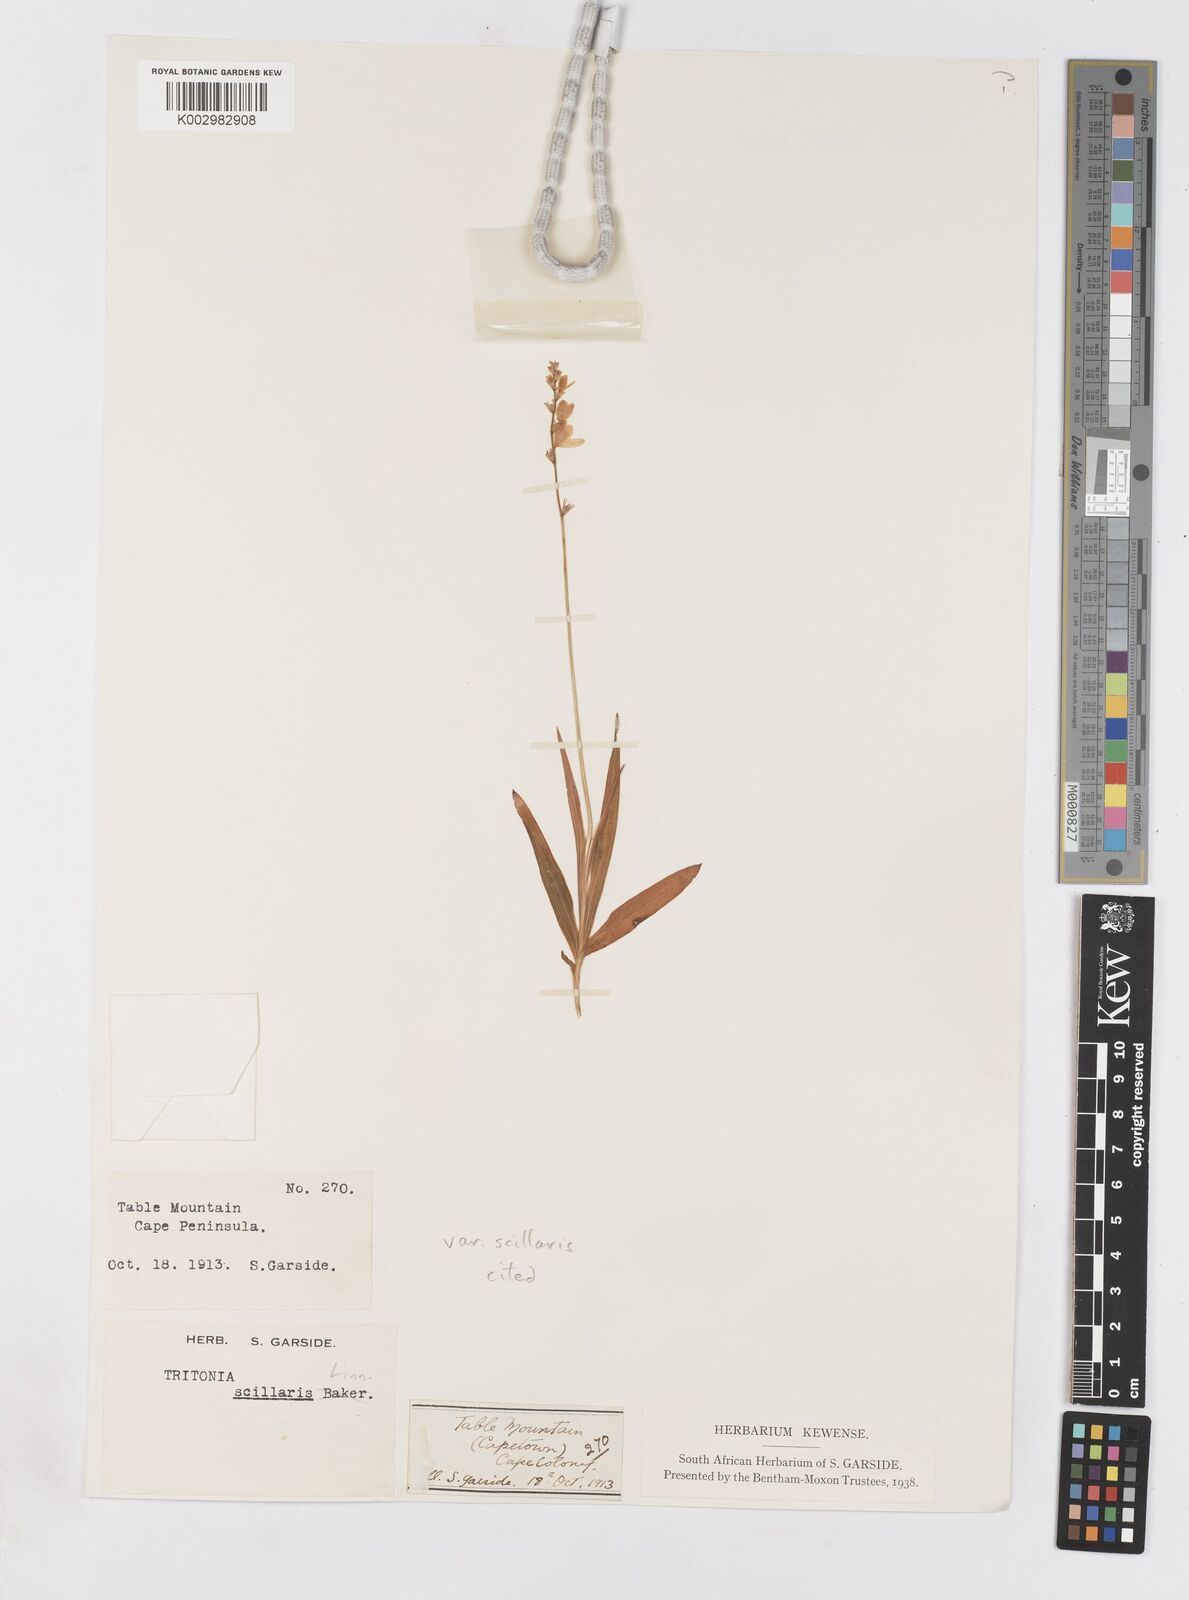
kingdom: Plantae
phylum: Tracheophyta
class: Liliopsida
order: Asparagales
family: Iridaceae
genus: Ixia
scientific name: Ixia scillaris
